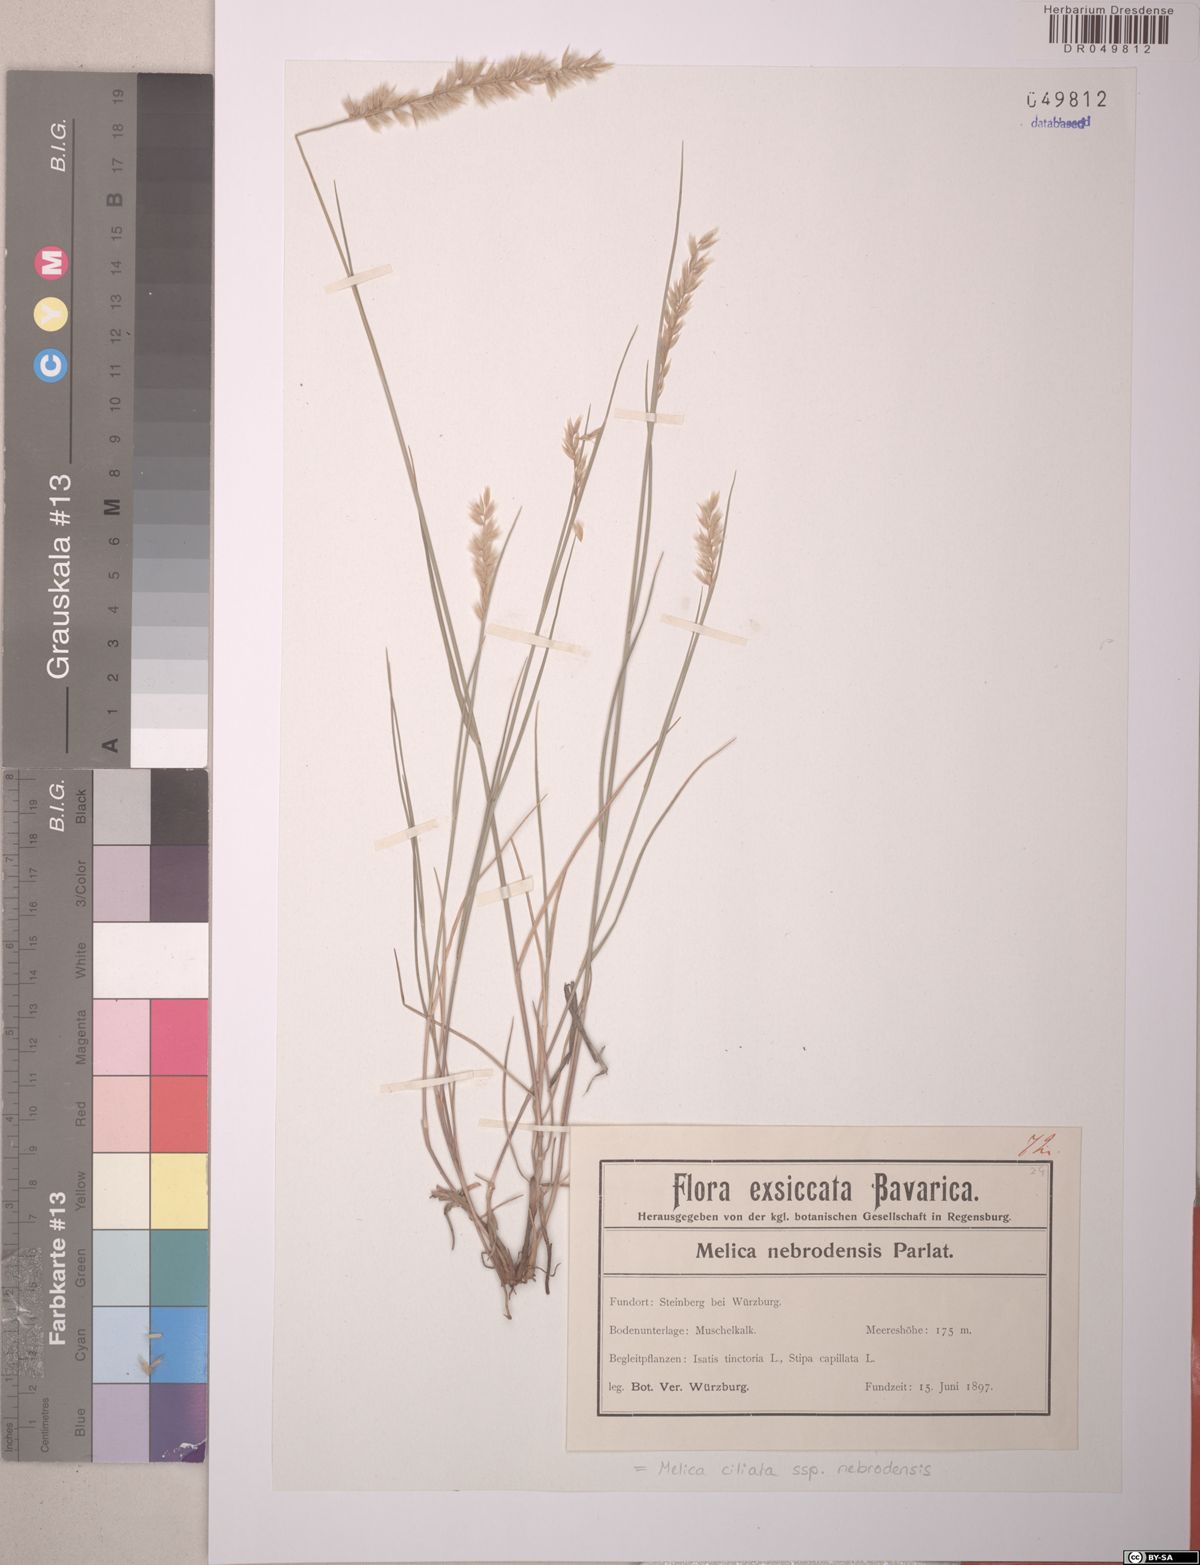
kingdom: Plantae
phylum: Tracheophyta
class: Liliopsida
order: Poales
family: Poaceae
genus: Melica
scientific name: Melica ciliata
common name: Hairy melicgrass
